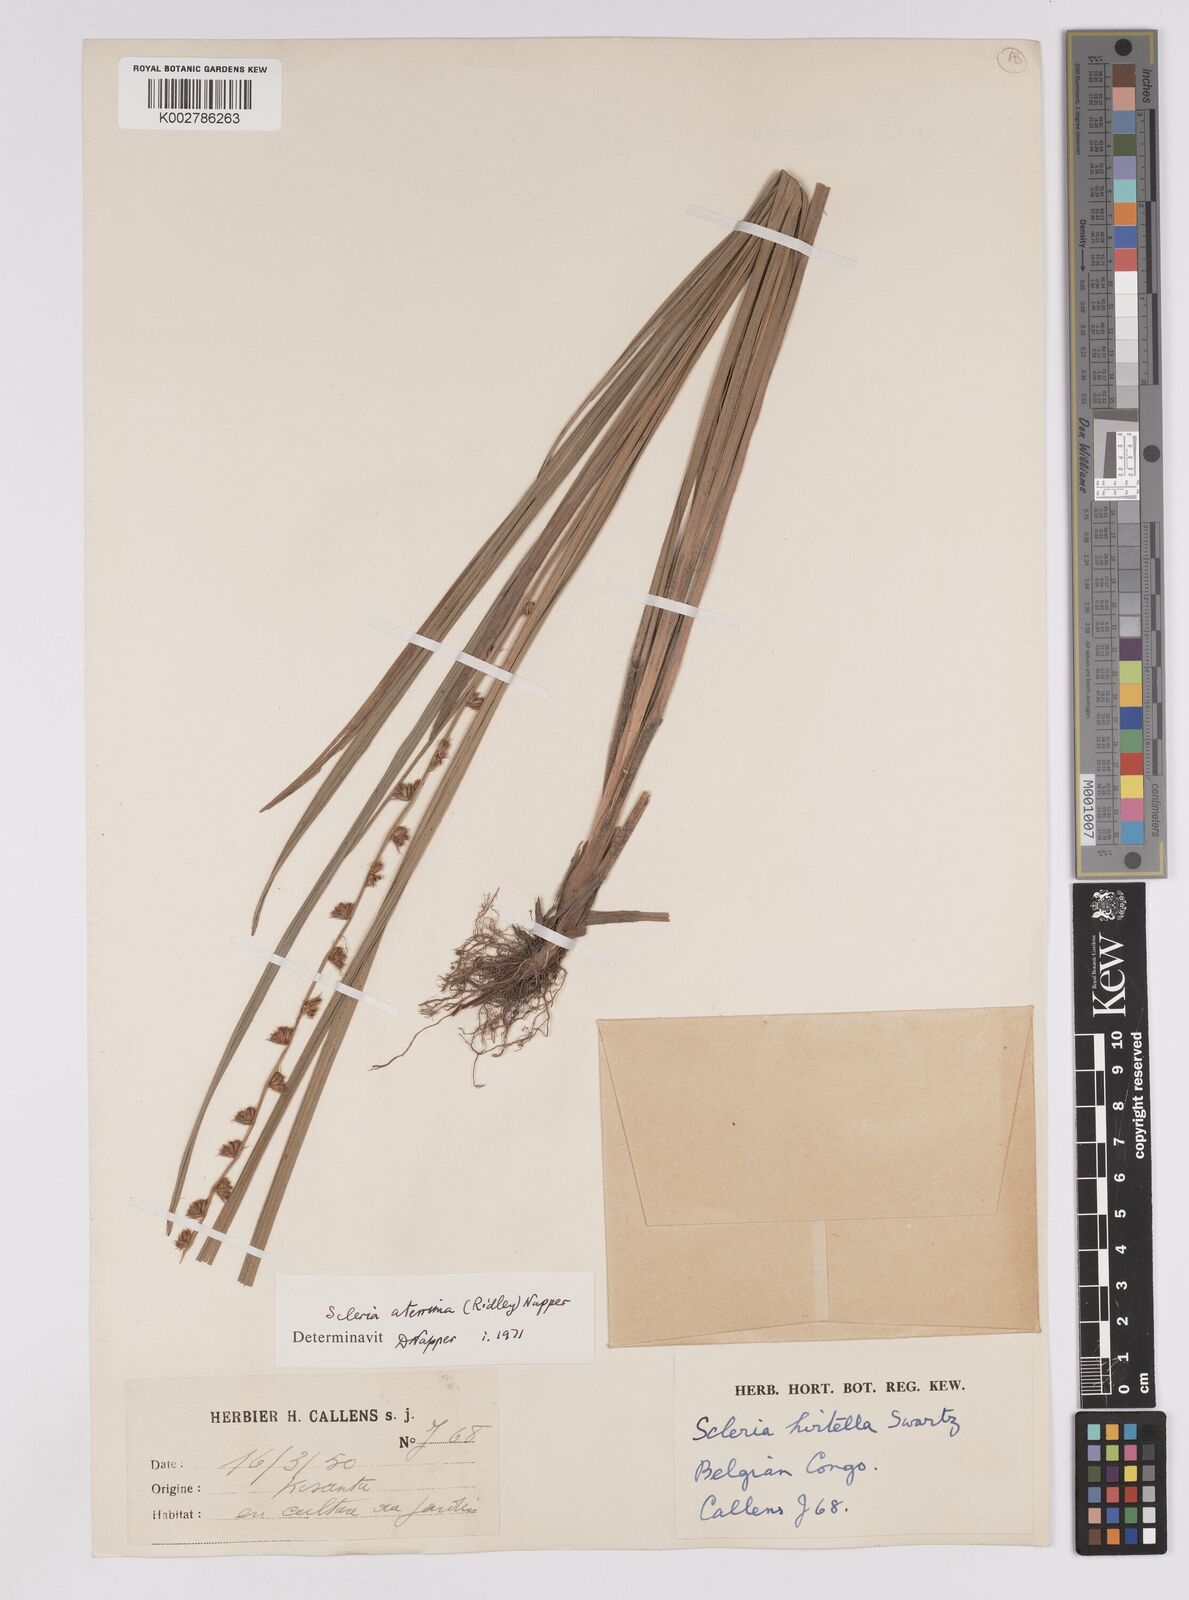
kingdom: Plantae
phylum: Tracheophyta
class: Liliopsida
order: Poales
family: Cyperaceae
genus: Scleria
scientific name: Scleria catophylla
